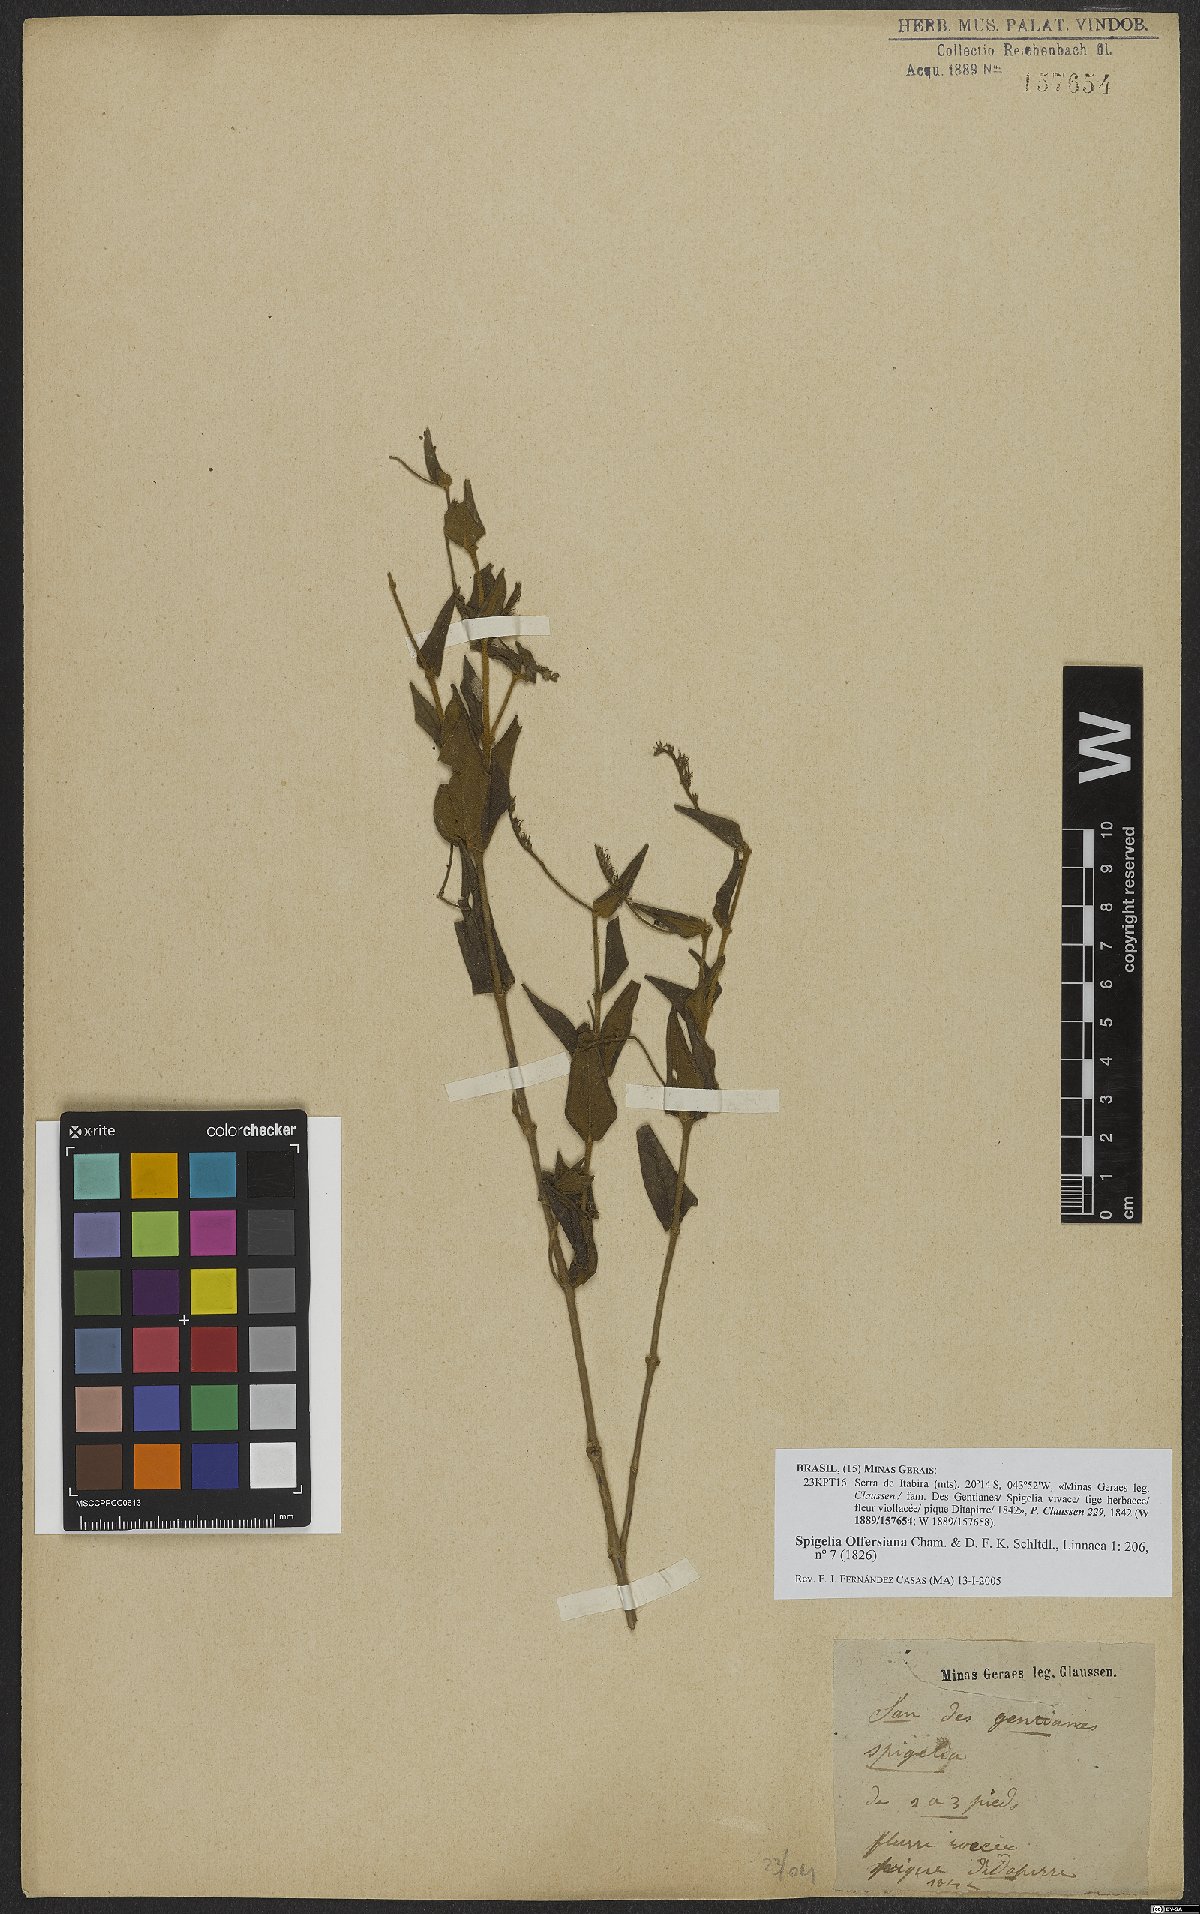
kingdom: Plantae
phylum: Tracheophyta
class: Magnoliopsida
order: Gentianales
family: Loganiaceae
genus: Spigelia
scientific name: Spigelia olfersiana
